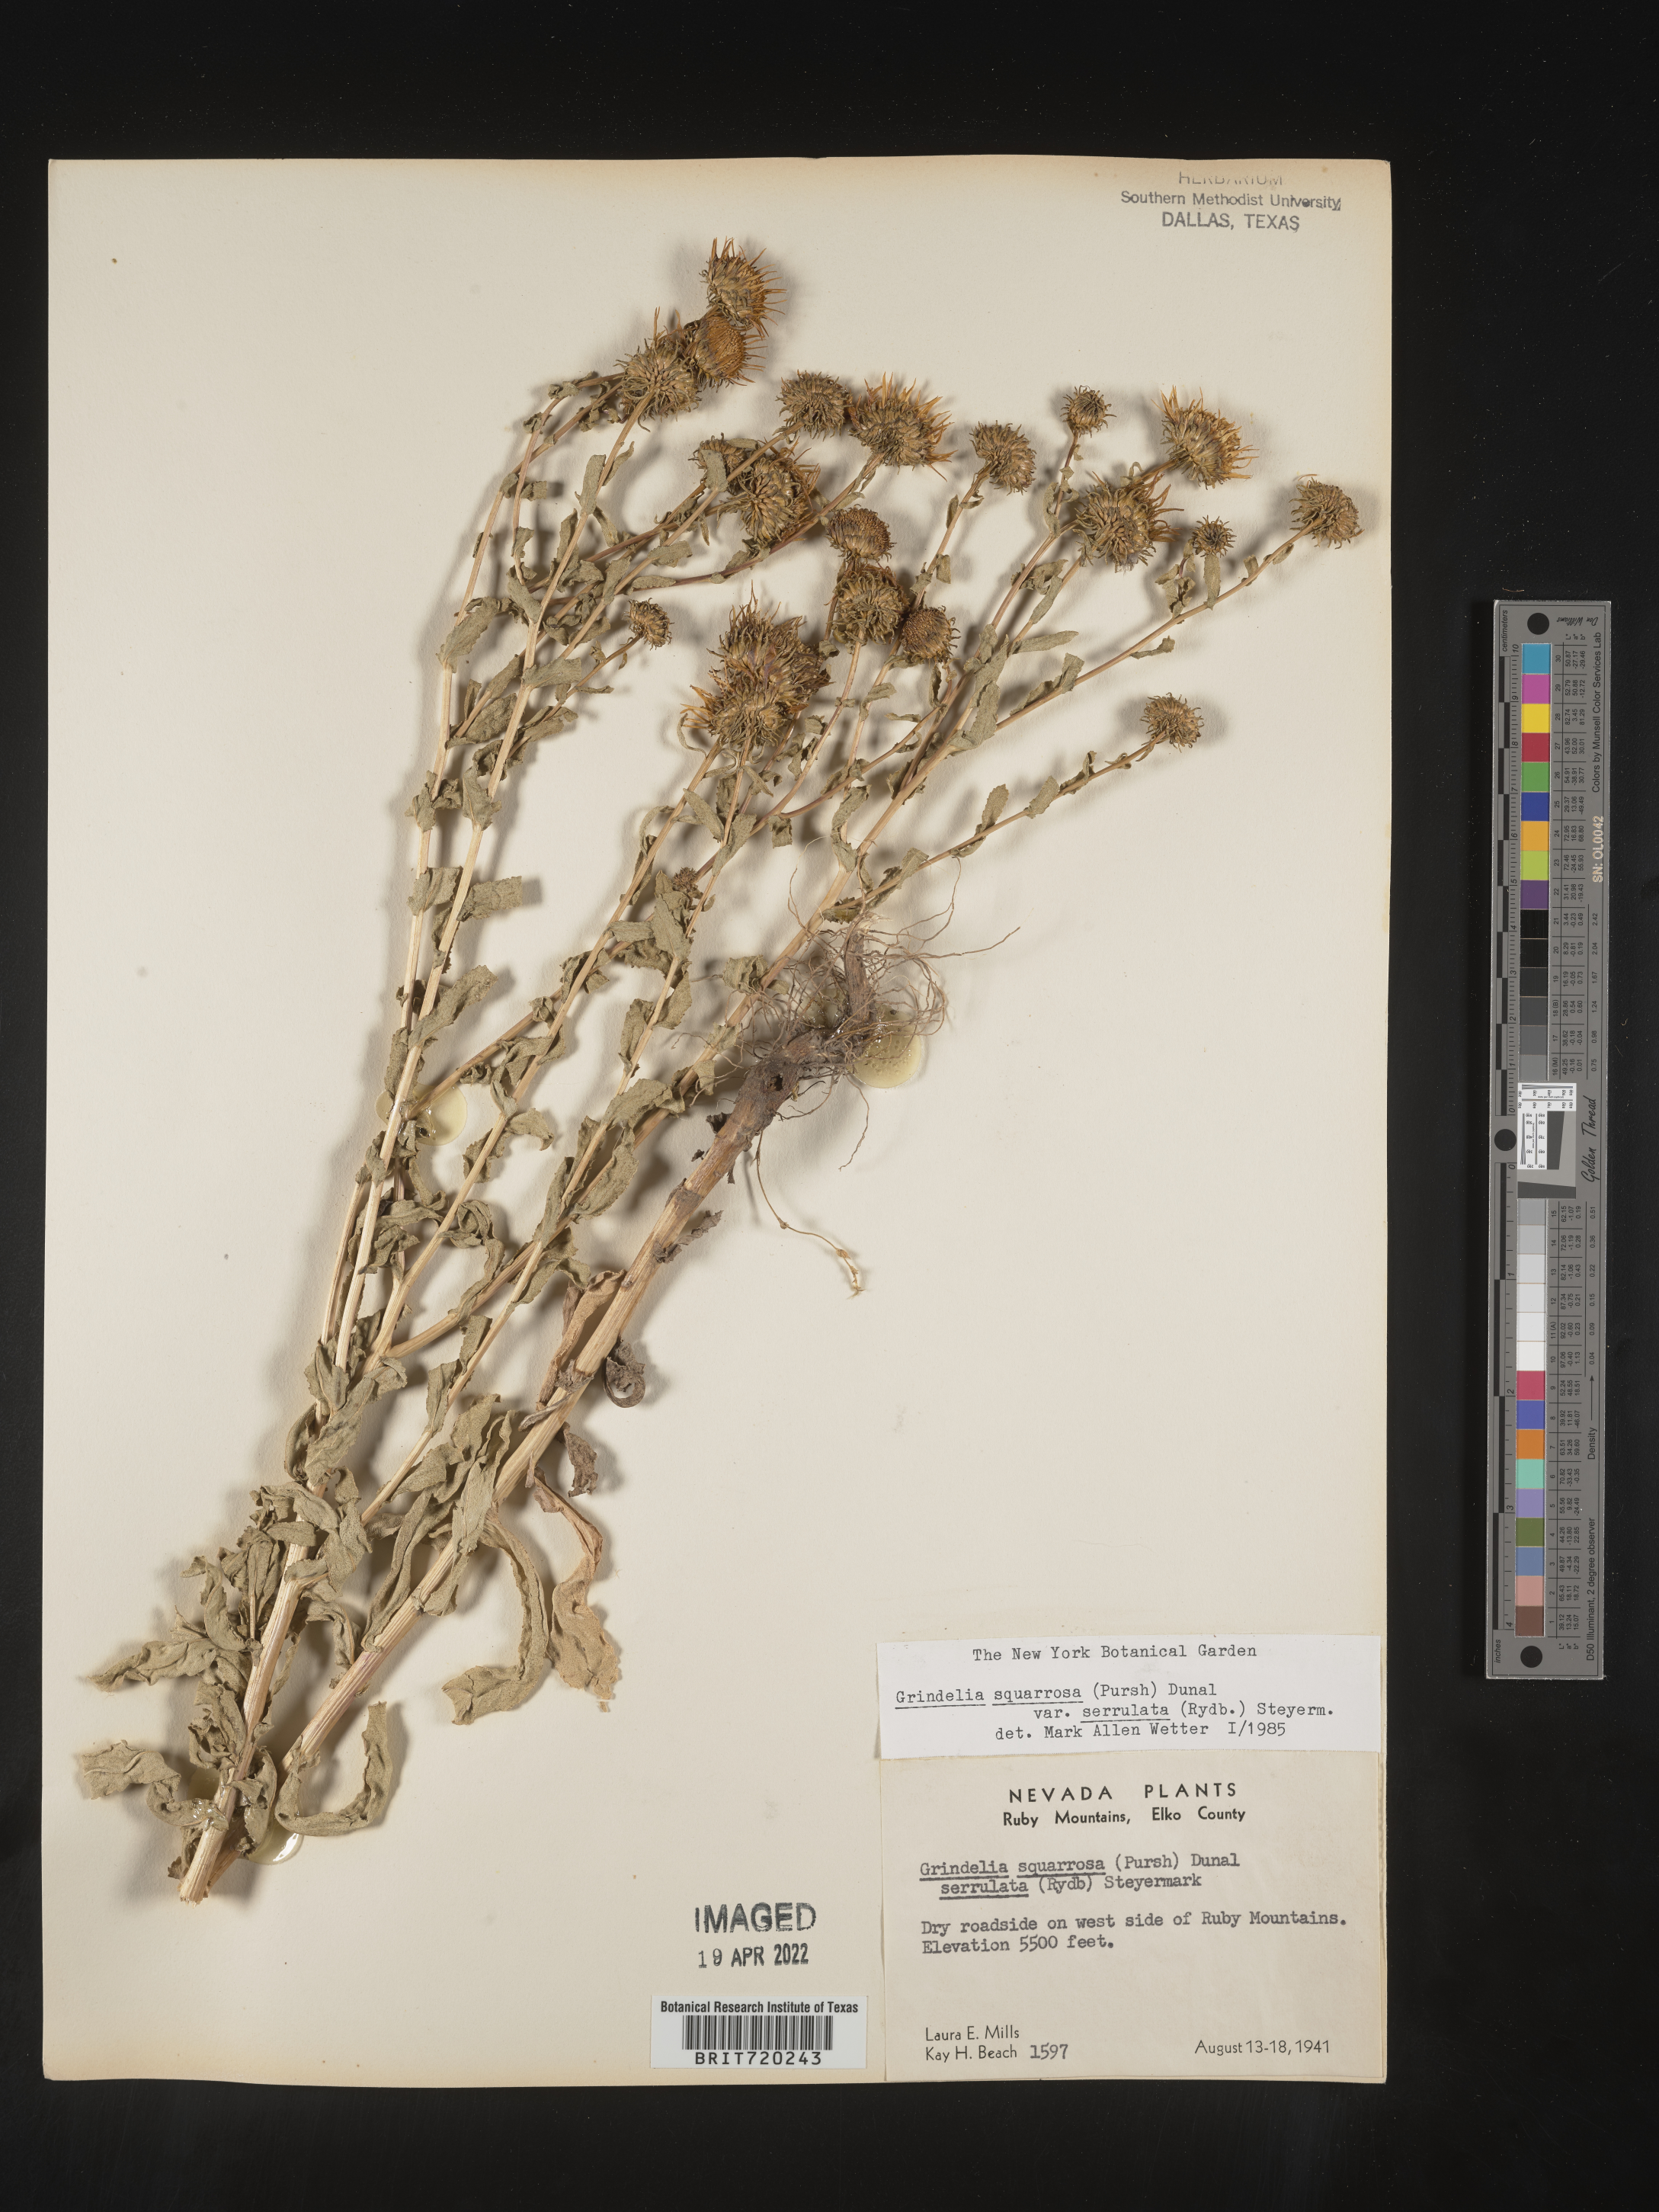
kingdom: Plantae
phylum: Tracheophyta
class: Magnoliopsida
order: Asterales
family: Asteraceae
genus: Grindelia
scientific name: Grindelia squarrosa
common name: Curly-cup gumweed
